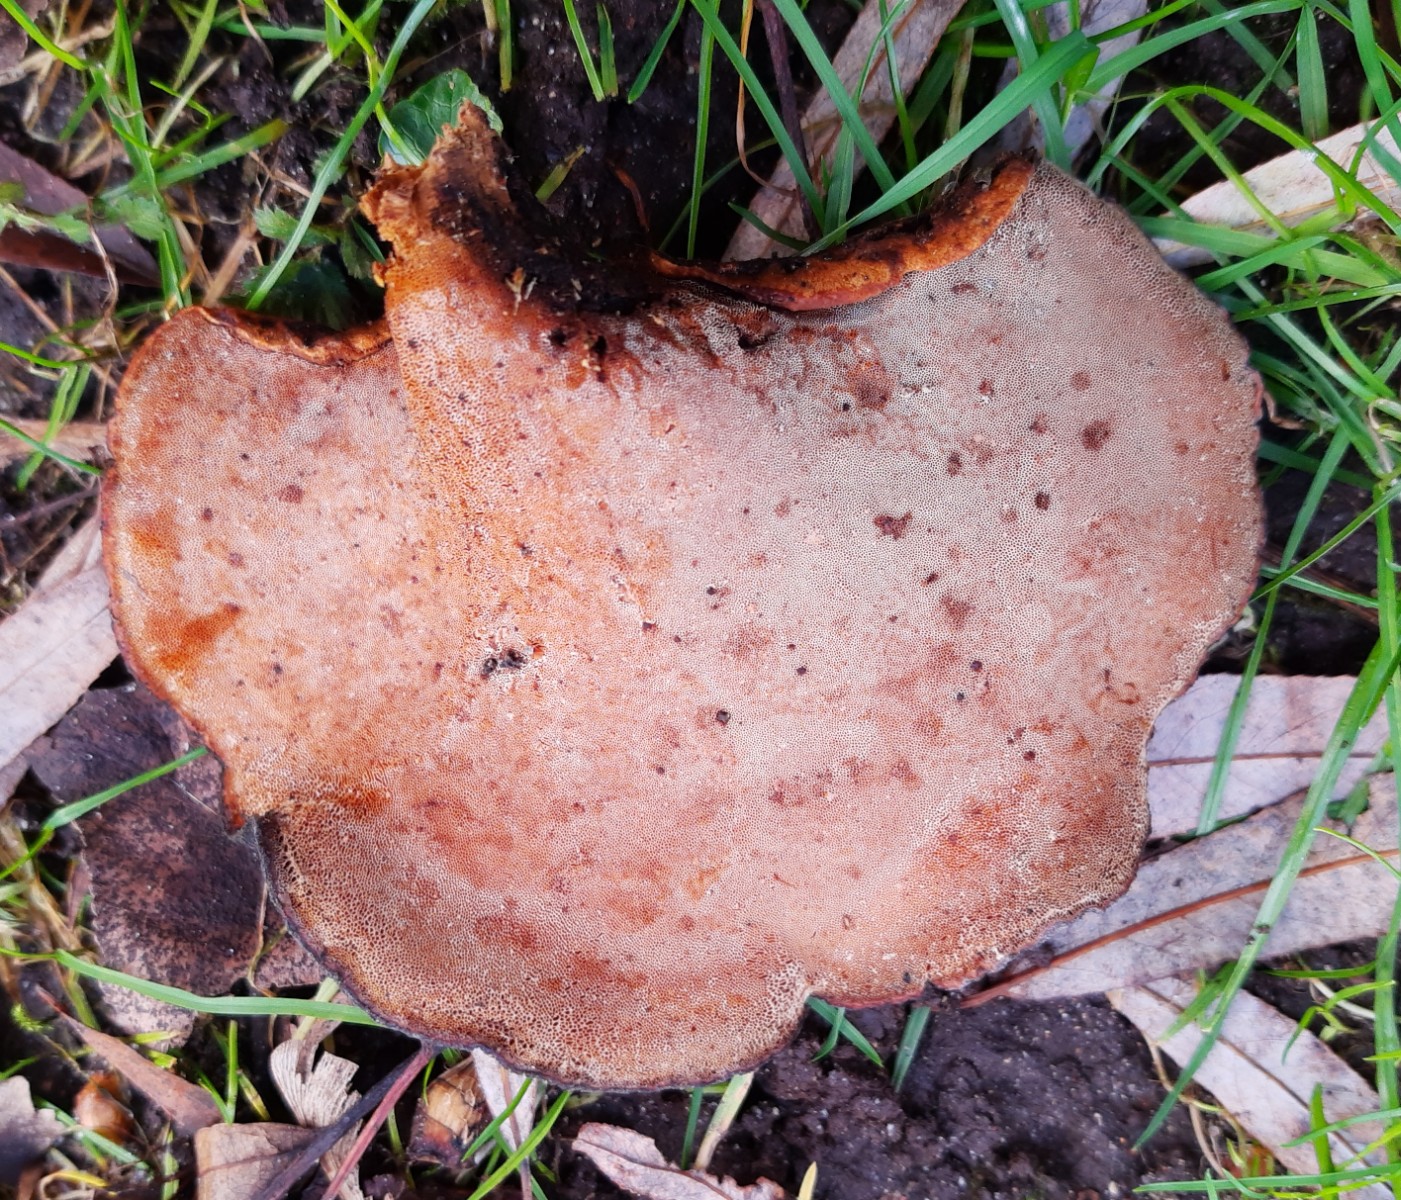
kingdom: Fungi
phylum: Basidiomycota
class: Agaricomycetes
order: Polyporales
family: Polyporaceae
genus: Cerioporus
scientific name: Cerioporus varius
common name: foranderlig stilkporesvamp
